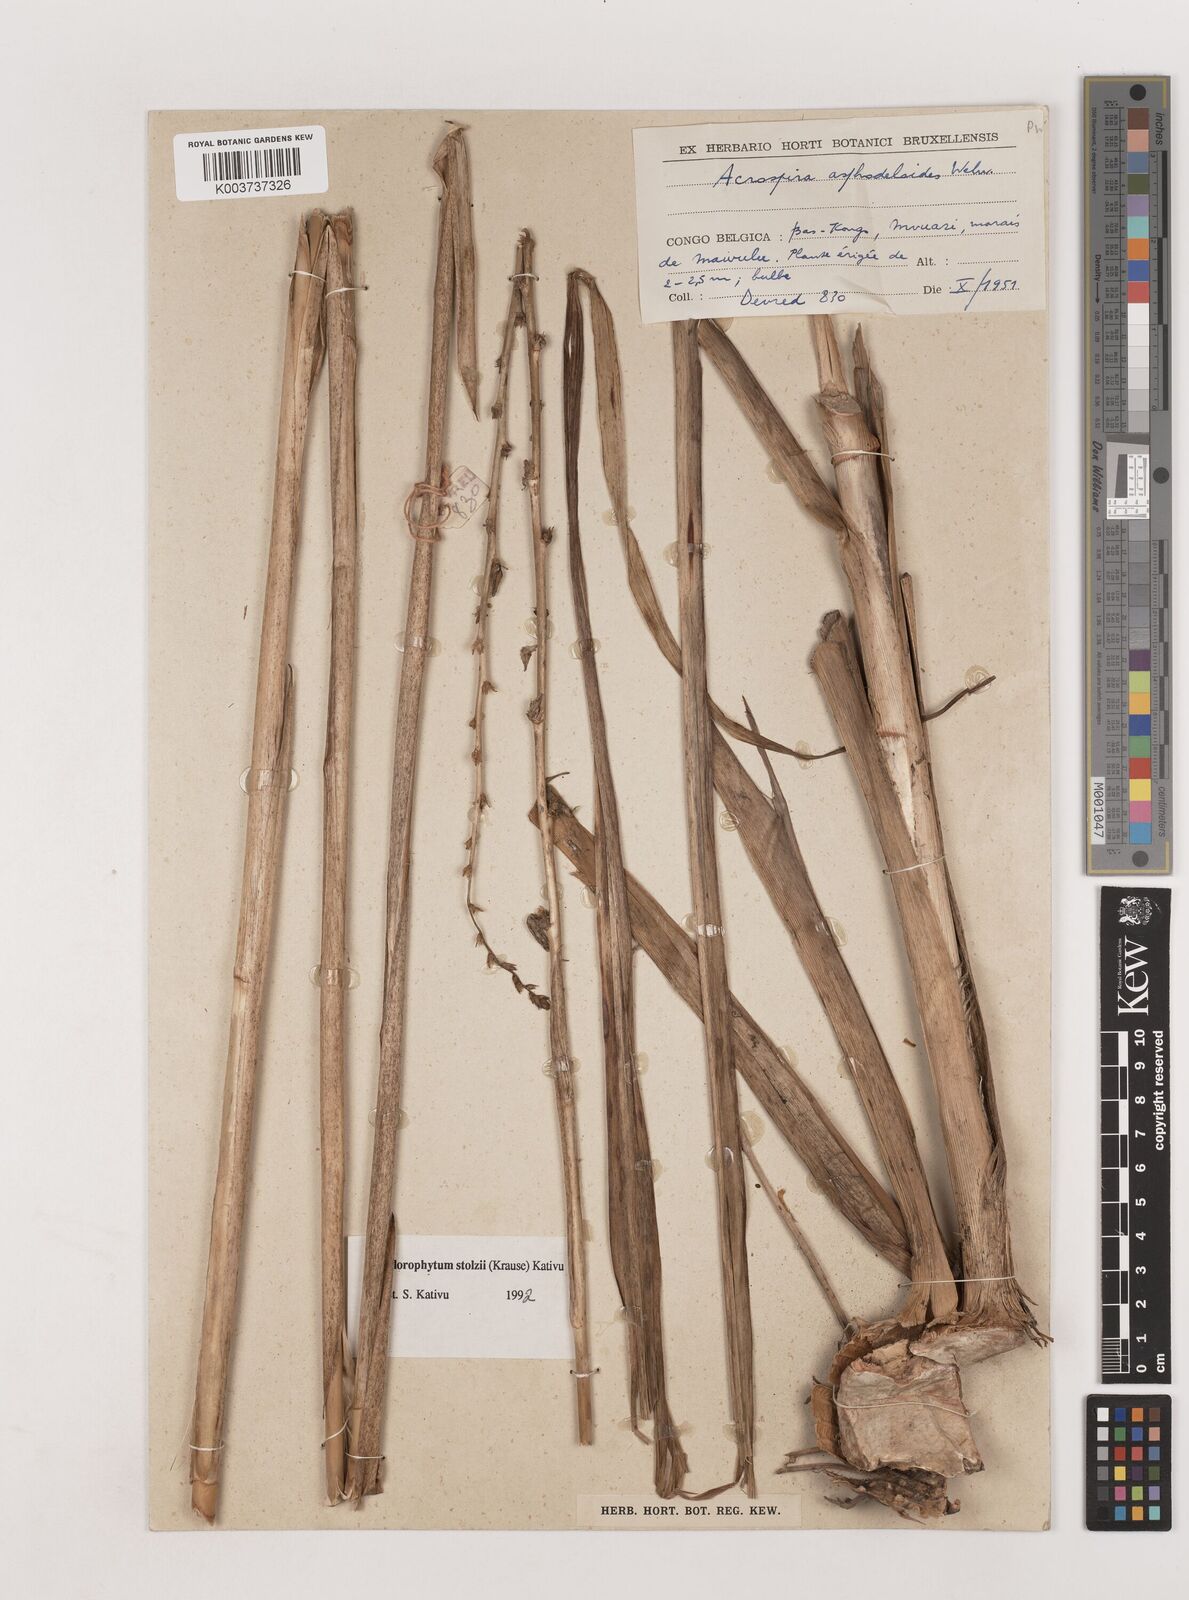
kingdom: Plantae
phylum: Tracheophyta
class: Liliopsida
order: Asparagales
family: Asparagaceae
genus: Chlorophytum
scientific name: Chlorophytum stolzii
